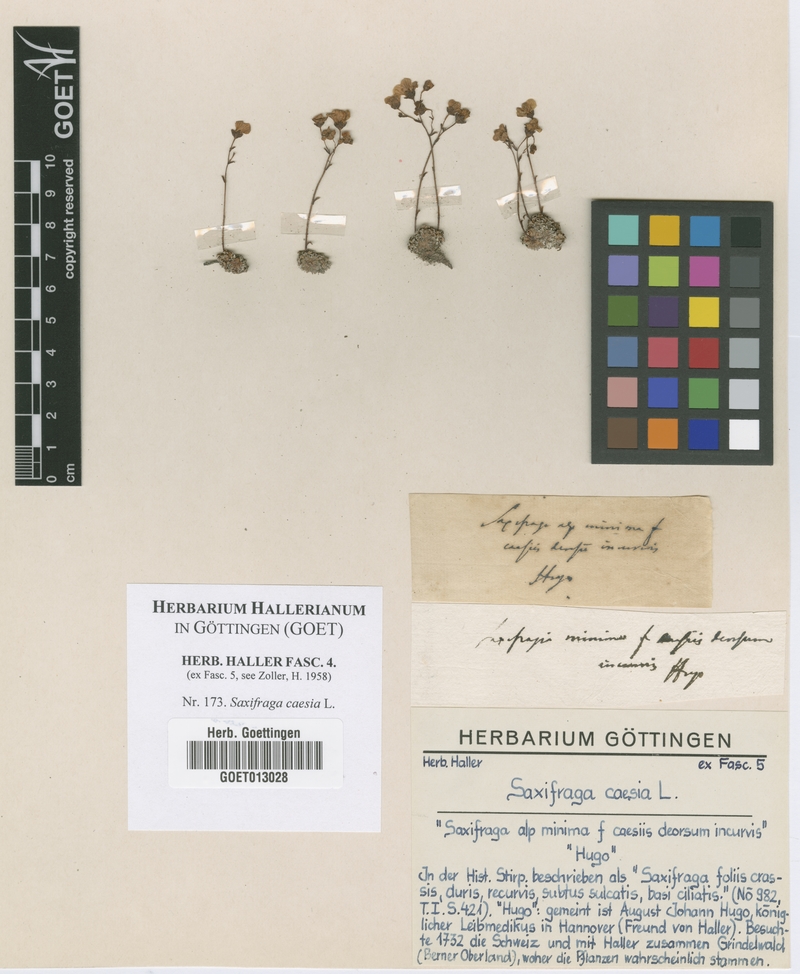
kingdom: Plantae
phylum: Tracheophyta
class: Magnoliopsida
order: Saxifragales
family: Saxifragaceae
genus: Saxifraga
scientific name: Saxifraga caesia
